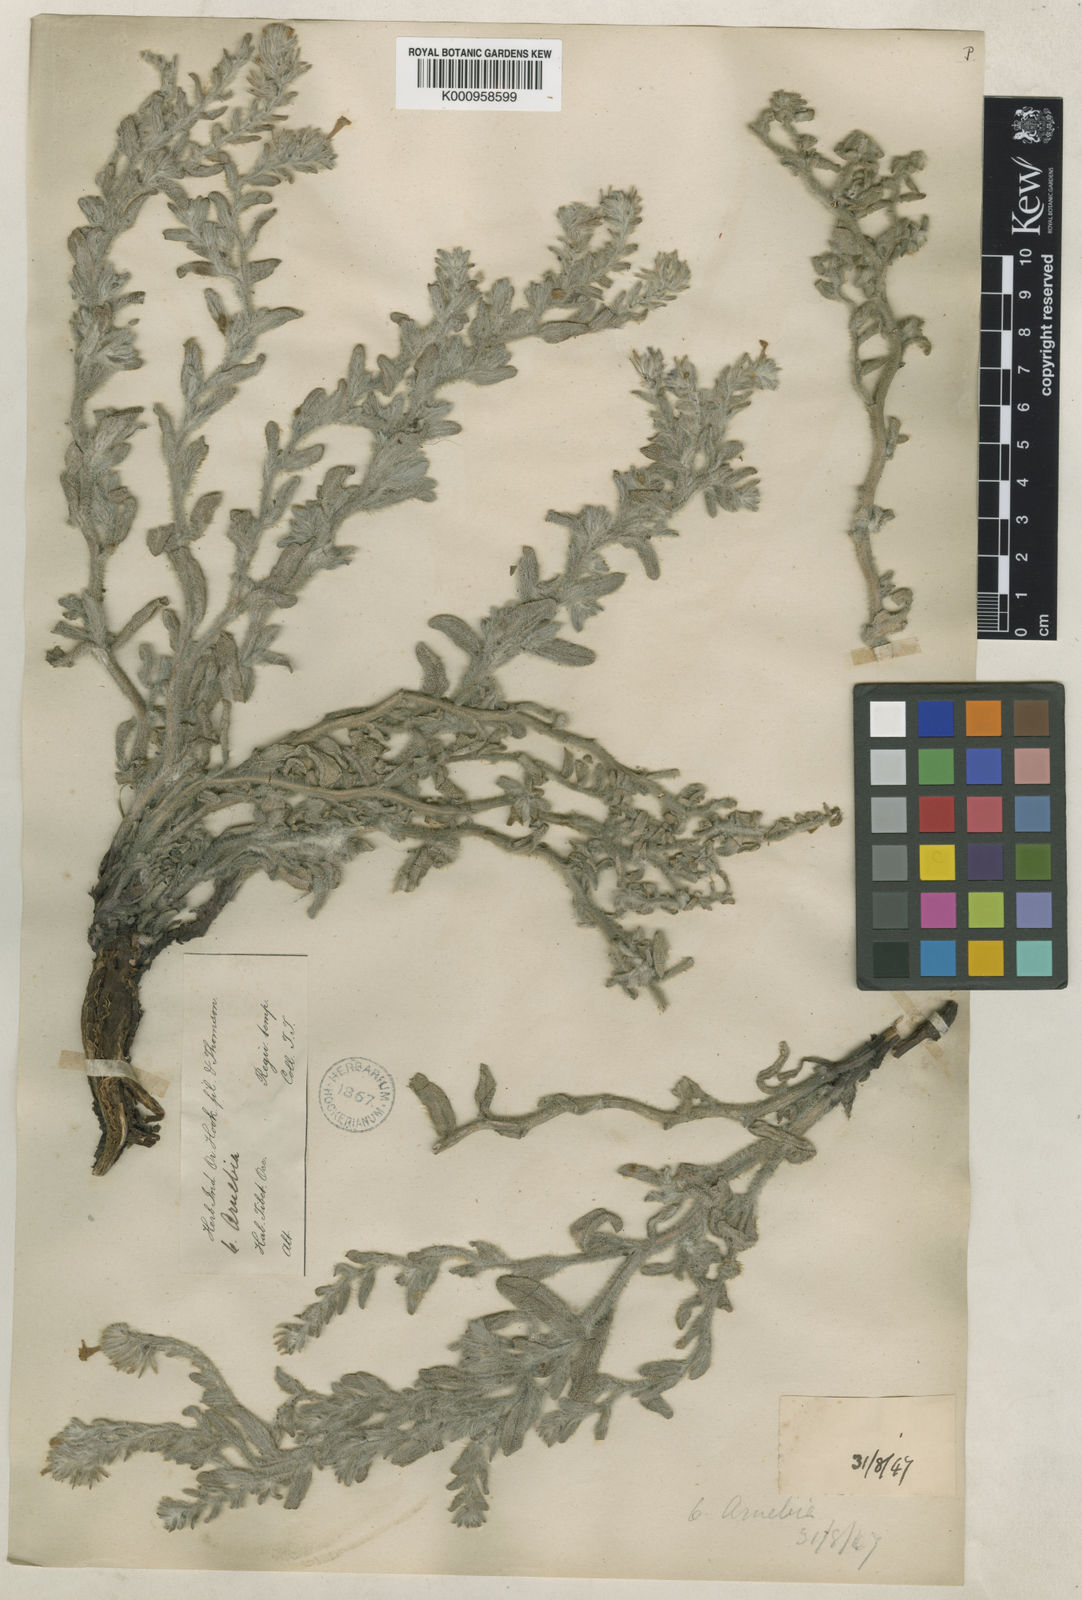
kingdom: Plantae
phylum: Tracheophyta
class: Magnoliopsida
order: Boraginales
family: Boraginaceae
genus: Arnebia
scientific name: Arnebia guttata
